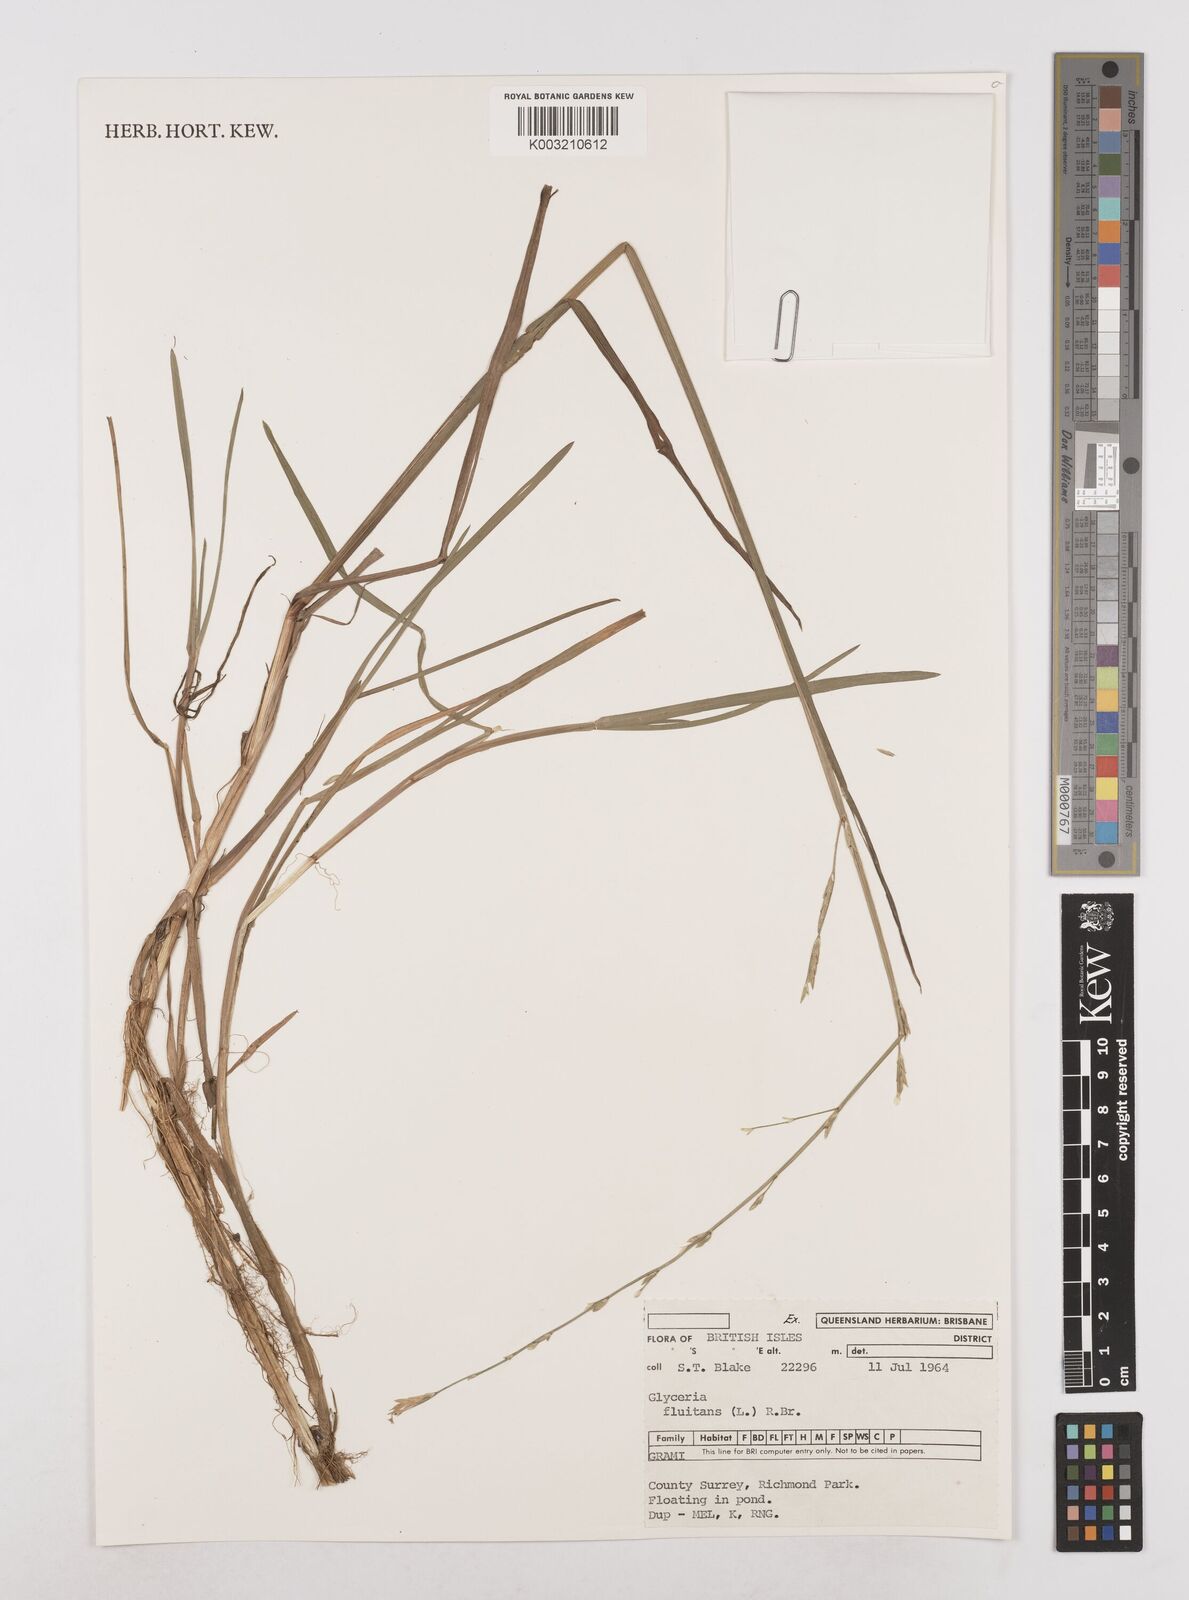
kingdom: Plantae
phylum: Tracheophyta
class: Liliopsida
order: Poales
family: Poaceae
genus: Glyceria
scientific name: Glyceria fluitans
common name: Floating sweet-grass
